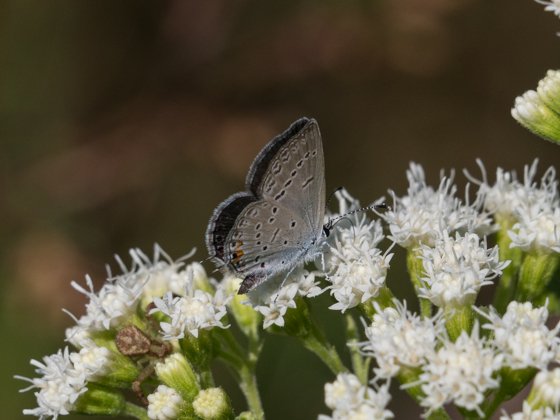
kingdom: Animalia
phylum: Arthropoda
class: Insecta
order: Lepidoptera
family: Lycaenidae
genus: Elkalyce
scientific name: Elkalyce comyntas
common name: Eastern Tailed-Blue
